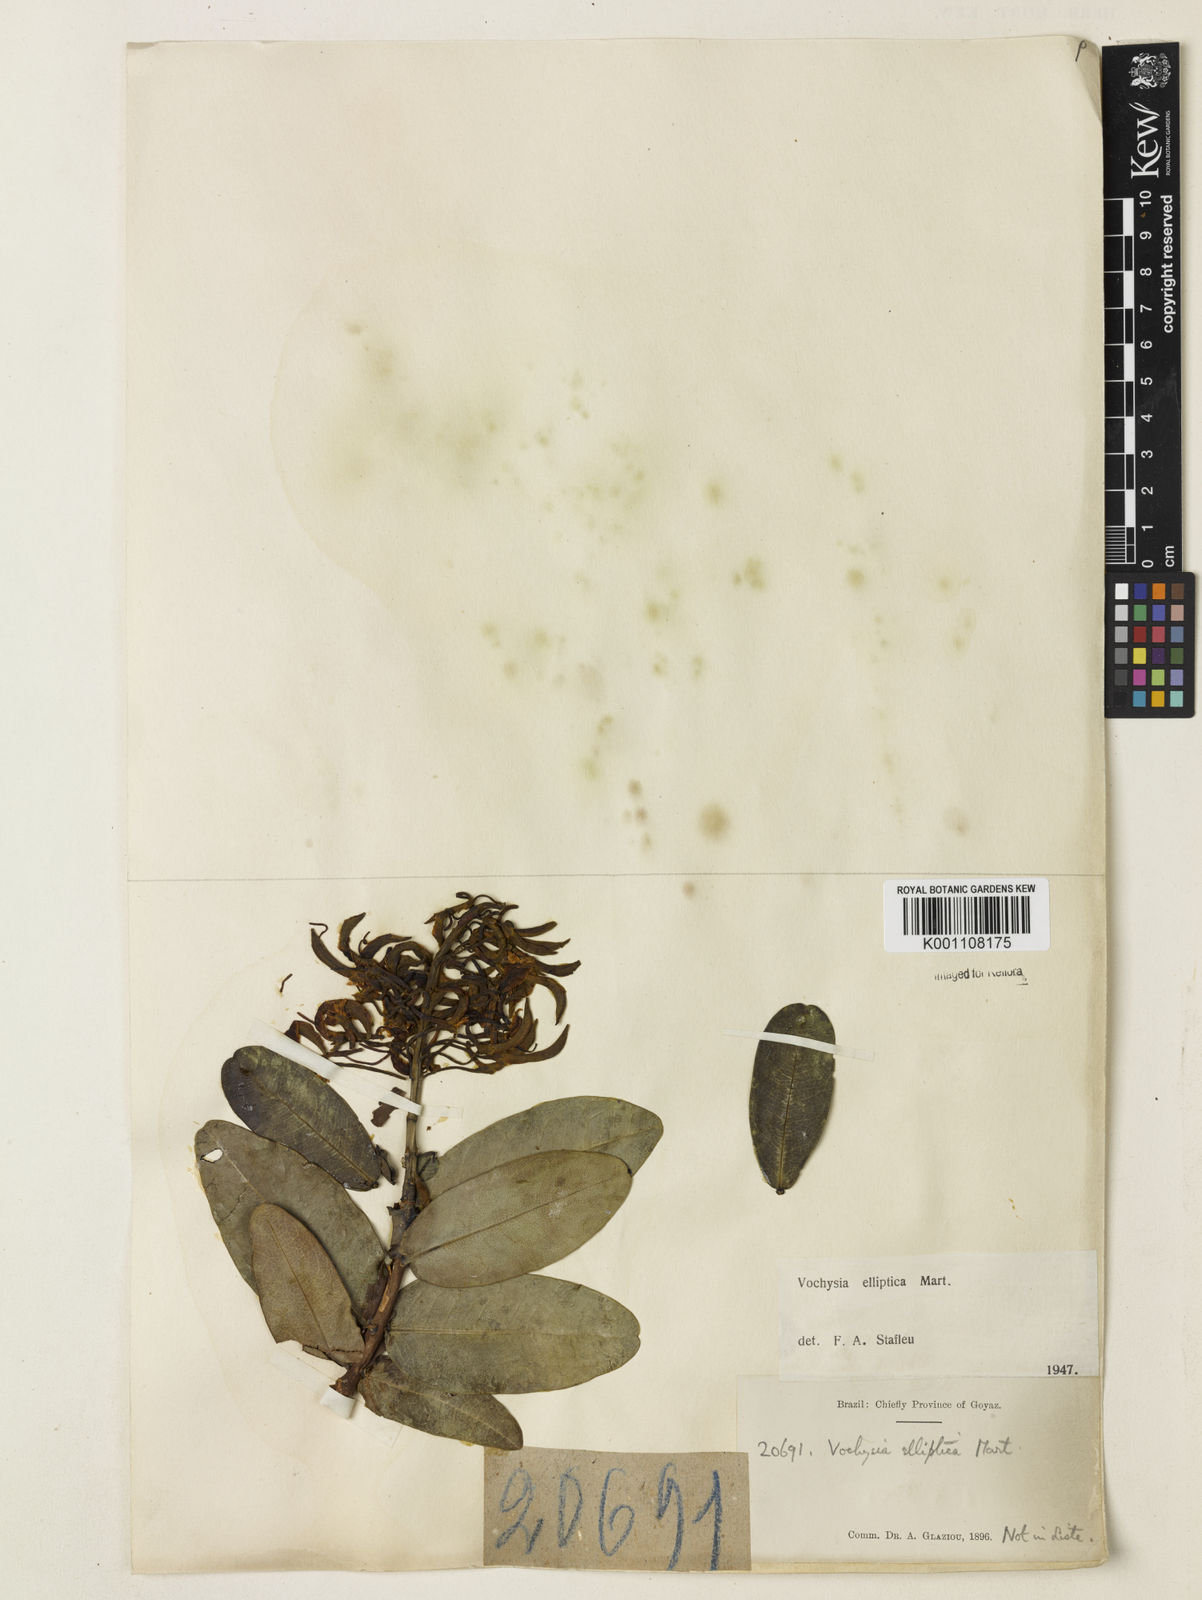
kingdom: Plantae
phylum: Tracheophyta
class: Magnoliopsida
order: Myrtales
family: Vochysiaceae
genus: Vochysia
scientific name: Vochysia elliptica
